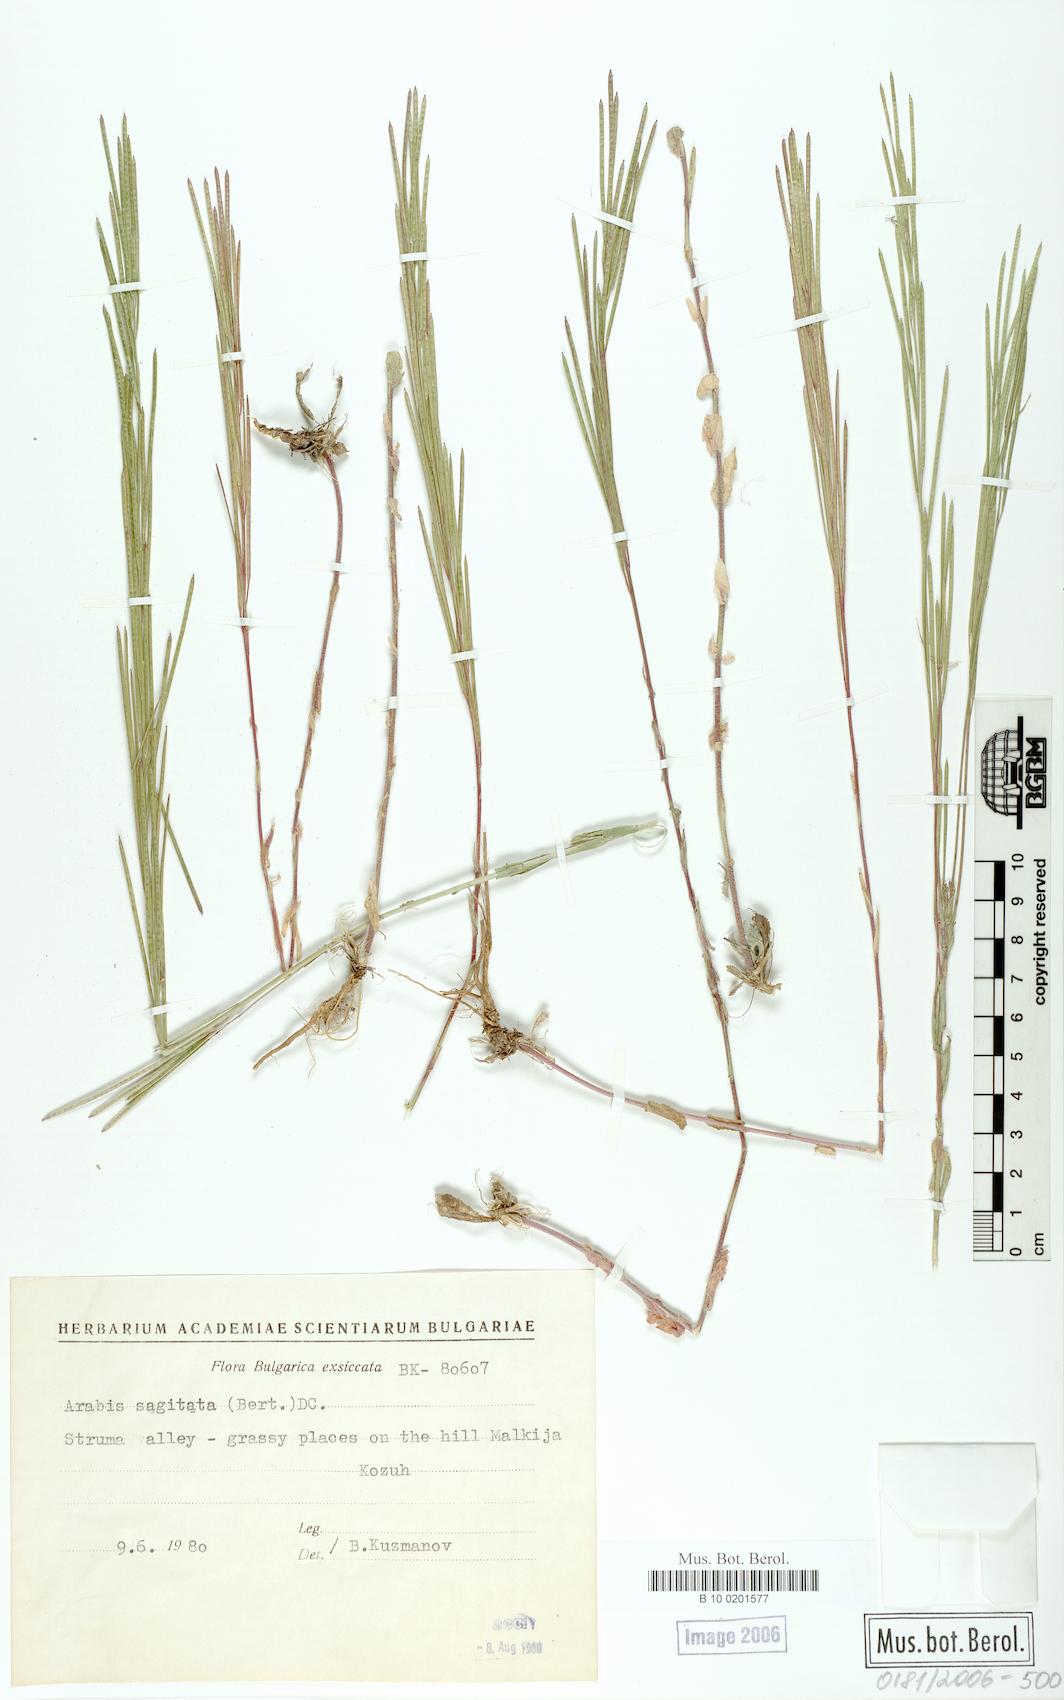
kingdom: Plantae
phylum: Tracheophyta
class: Magnoliopsida
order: Brassicales
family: Brassicaceae
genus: Arabis
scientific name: Arabis sagittata
